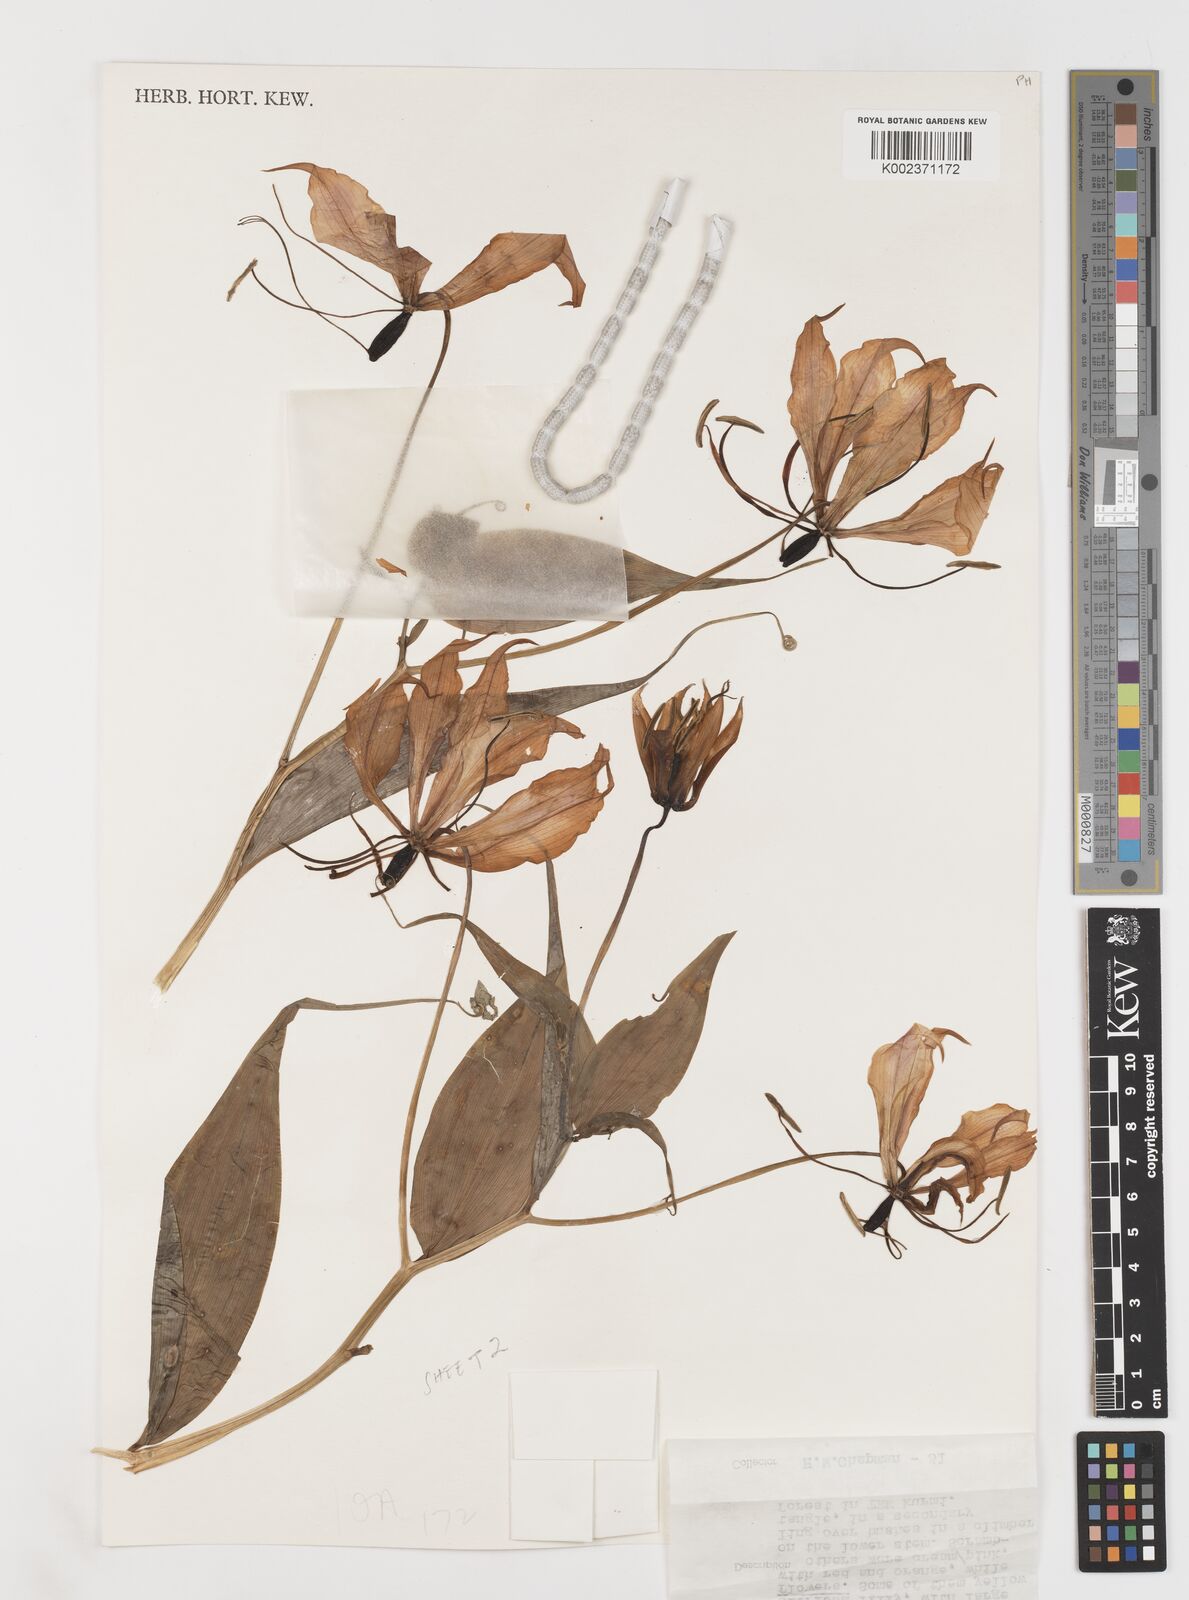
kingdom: Plantae
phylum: Tracheophyta
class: Liliopsida
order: Liliales
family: Colchicaceae
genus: Gloriosa
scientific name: Gloriosa simplex
